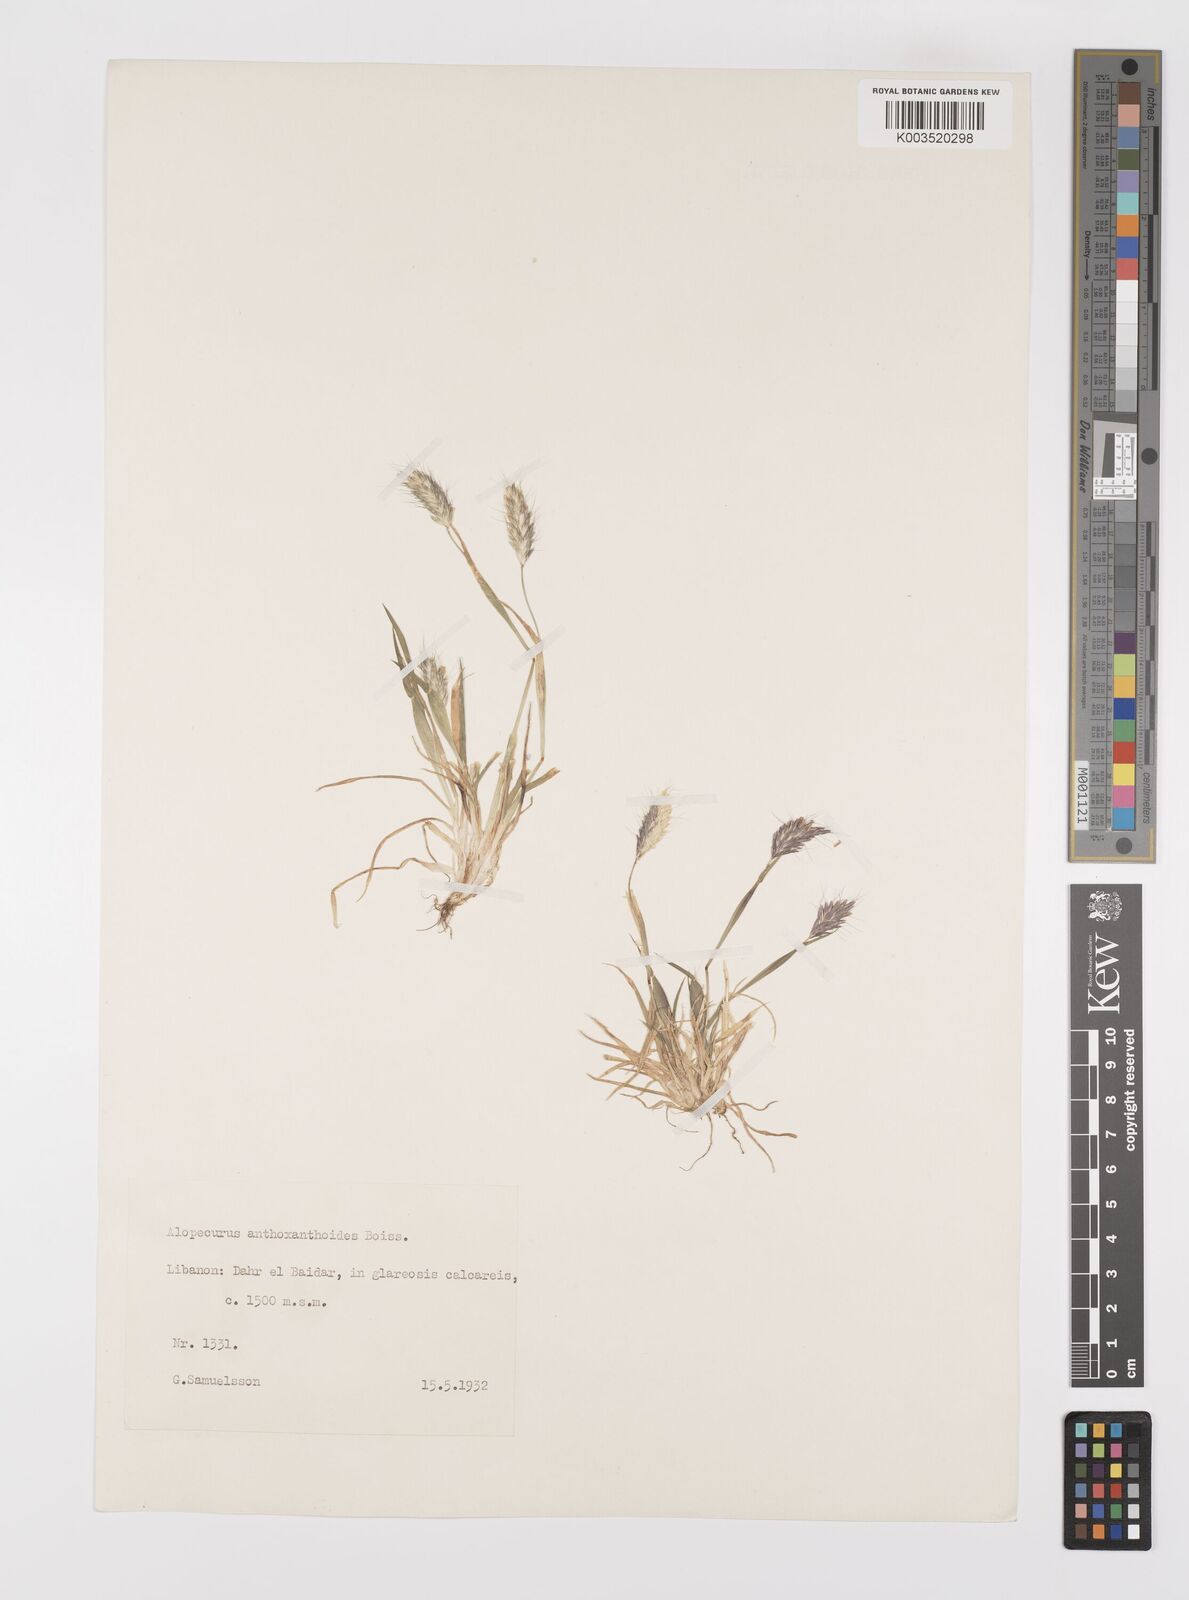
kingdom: Plantae
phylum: Tracheophyta
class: Liliopsida
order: Poales
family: Poaceae
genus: Alopecurus
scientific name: Alopecurus utriculatus
